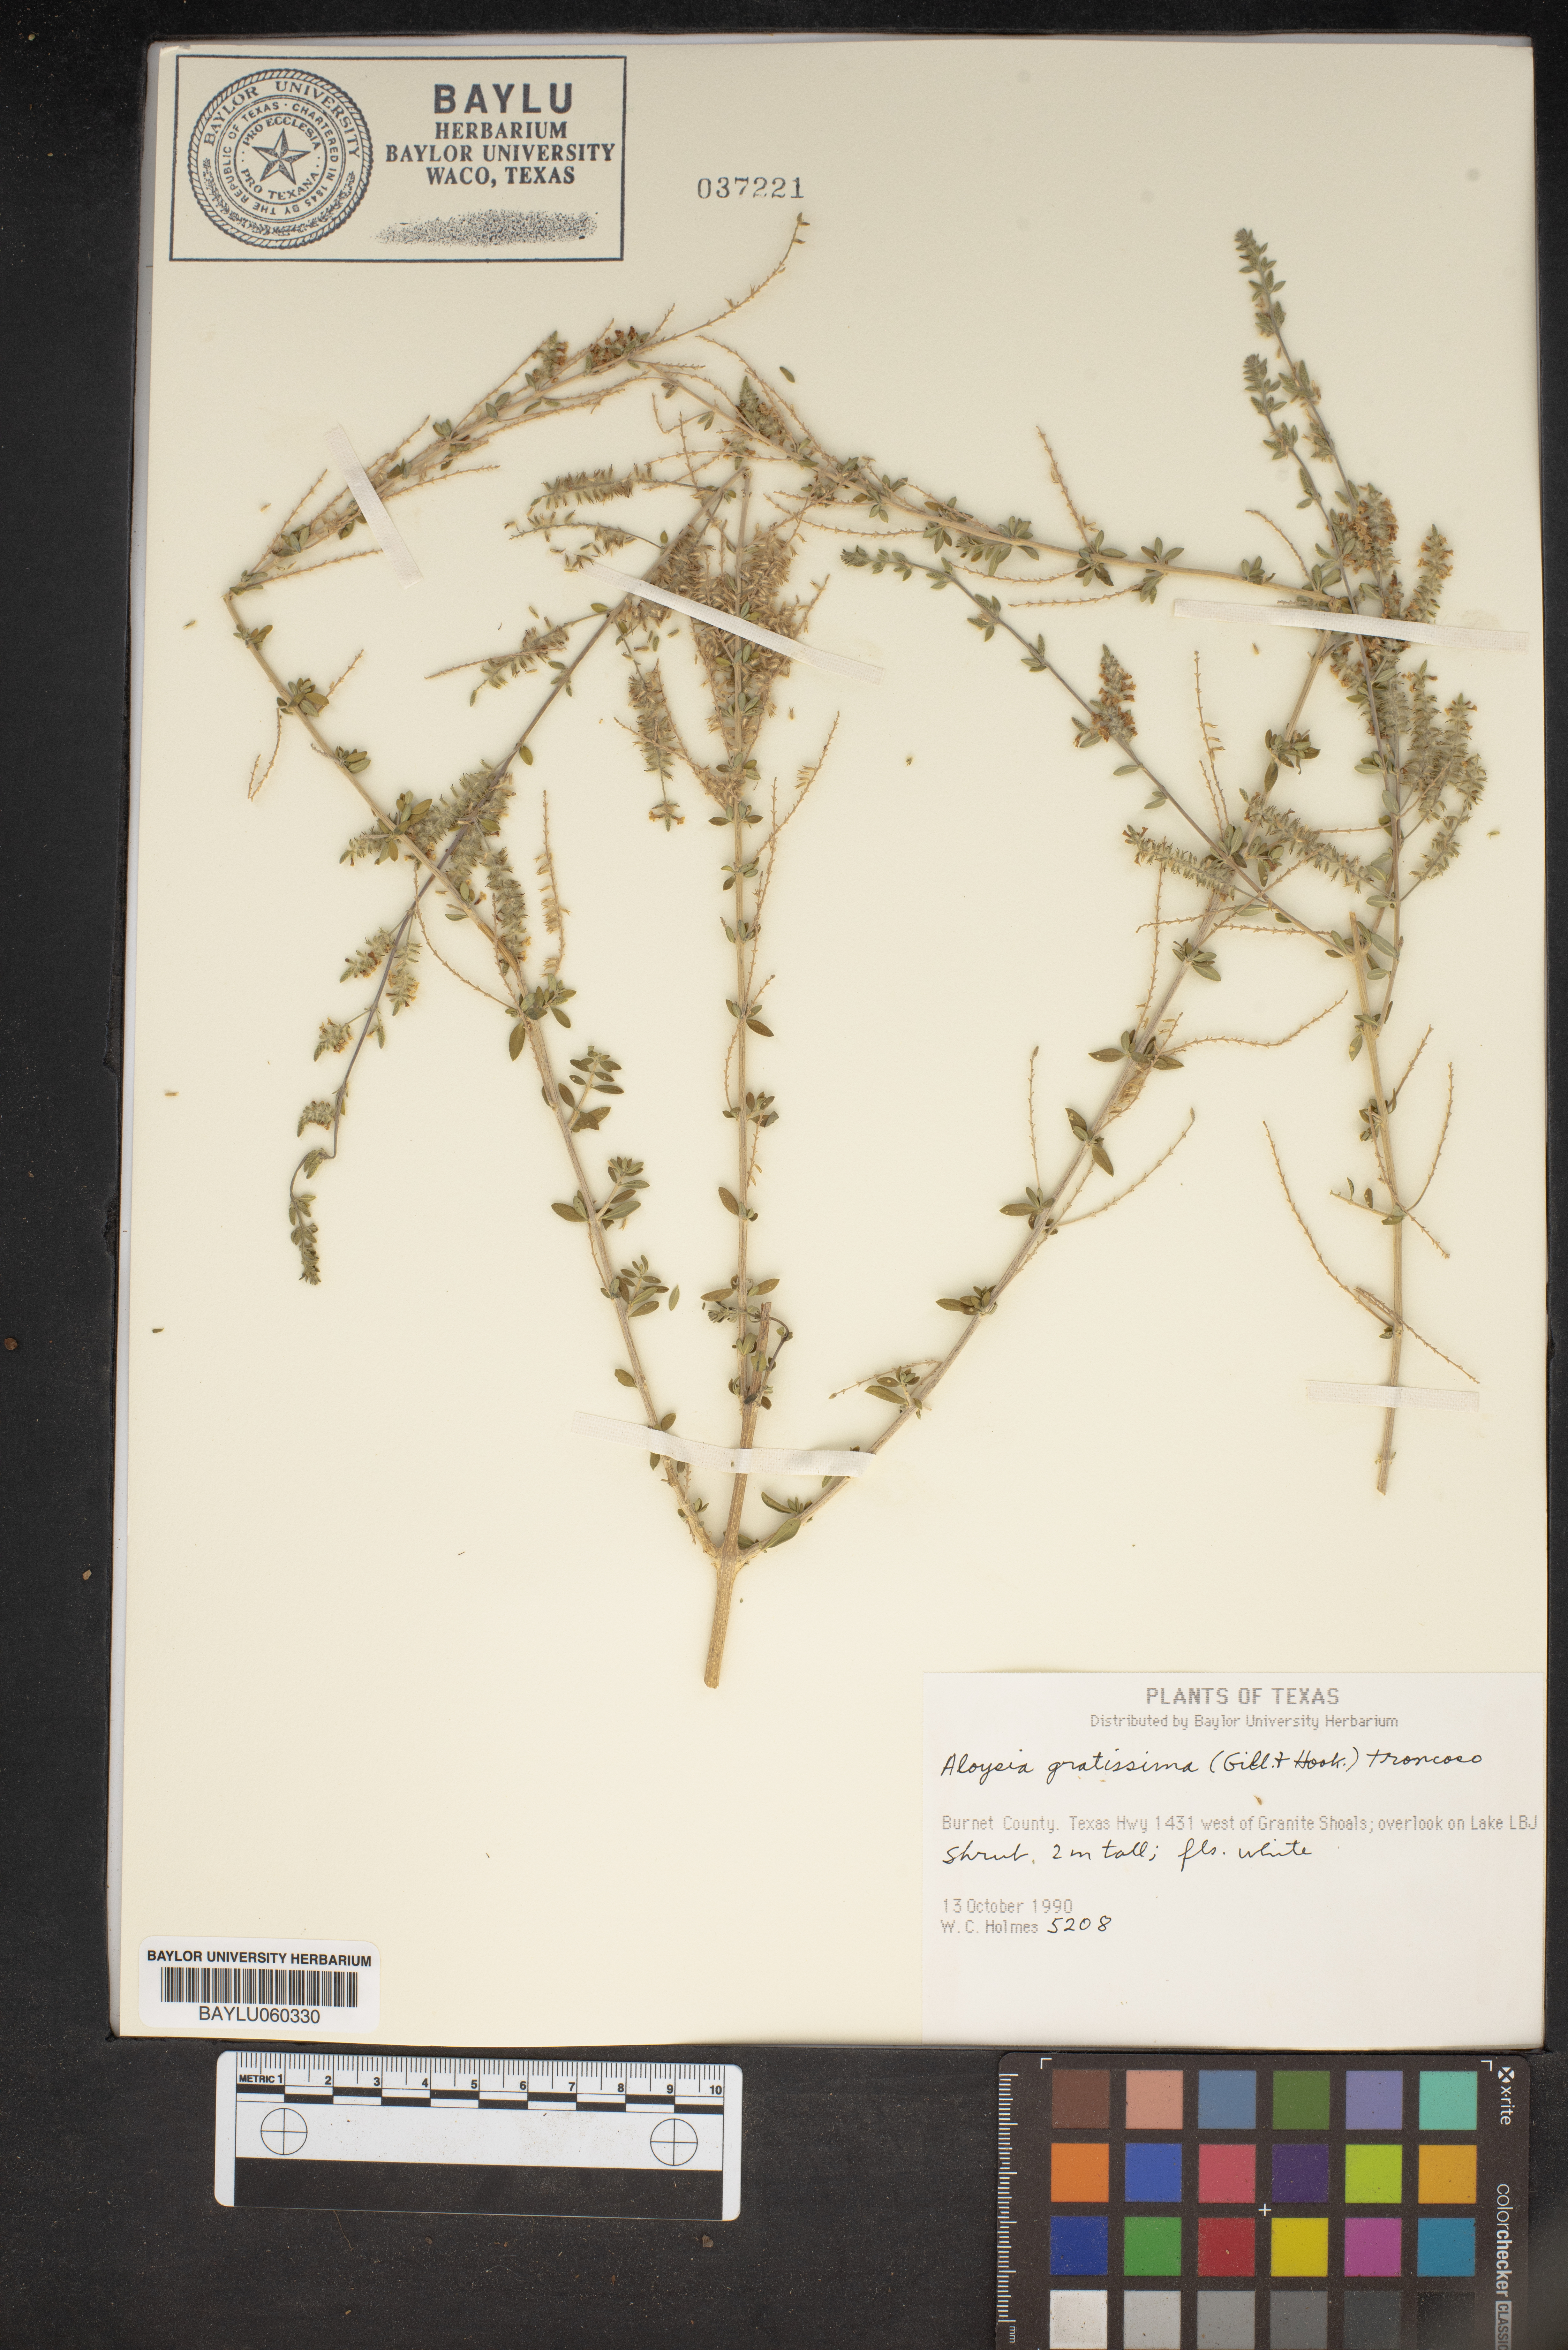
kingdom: Plantae
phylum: Tracheophyta
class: Magnoliopsida
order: Lamiales
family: Verbenaceae
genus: Aloysia
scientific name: Aloysia gratissima
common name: Common bee-brush
